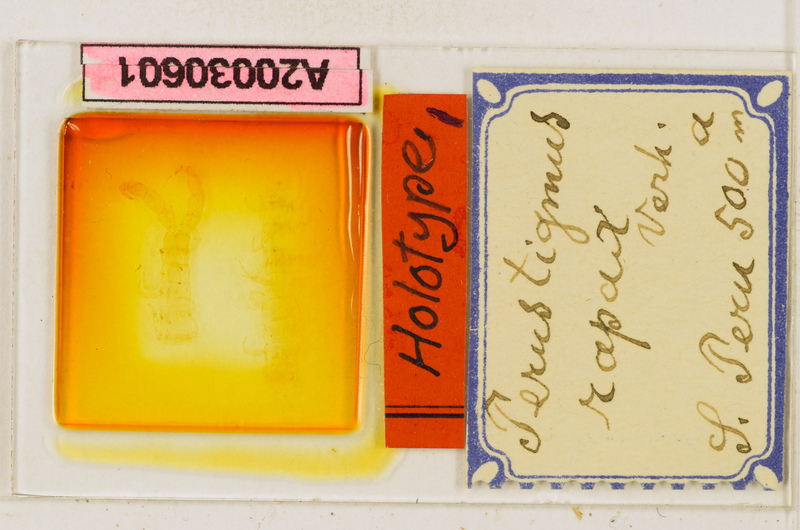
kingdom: Animalia
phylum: Arthropoda
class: Chilopoda
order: Scolopendromorpha
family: Scolopendridae
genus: Cormocephalus
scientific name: Cormocephalus andinus
